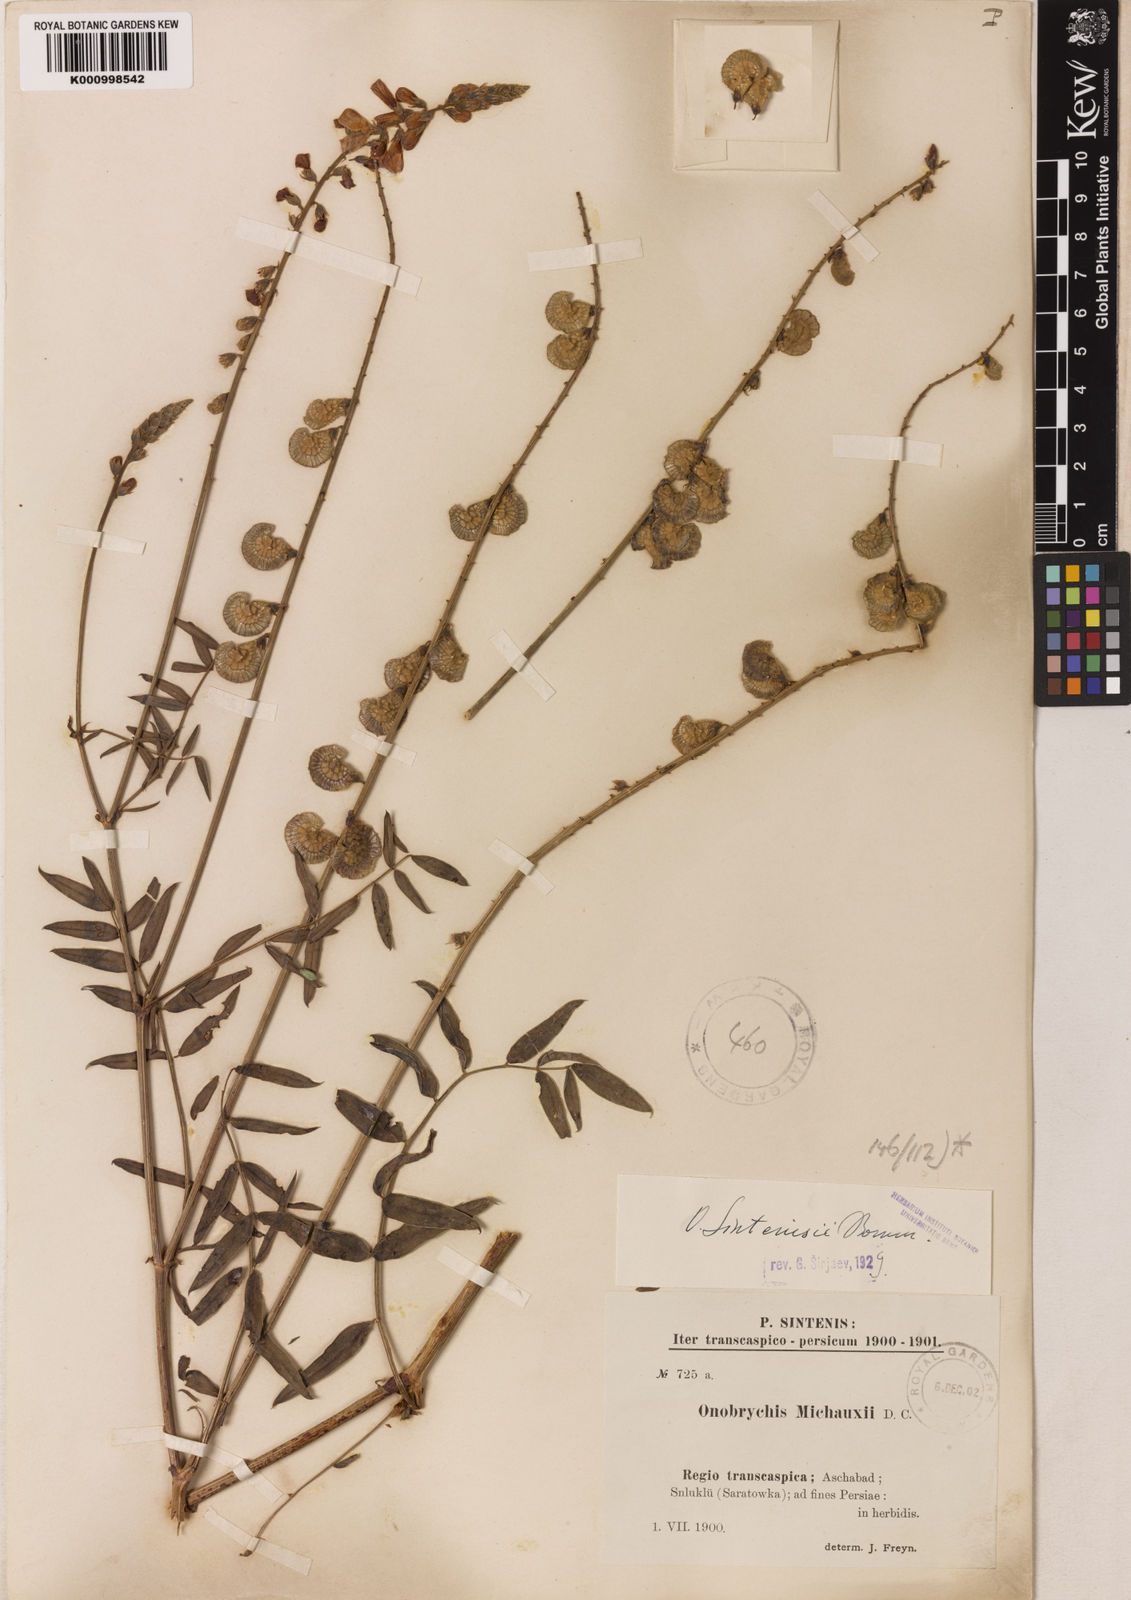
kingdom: Plantae
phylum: Tracheophyta
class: Magnoliopsida
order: Fabales
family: Fabaceae
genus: Onobrychis
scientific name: Onobrychis
